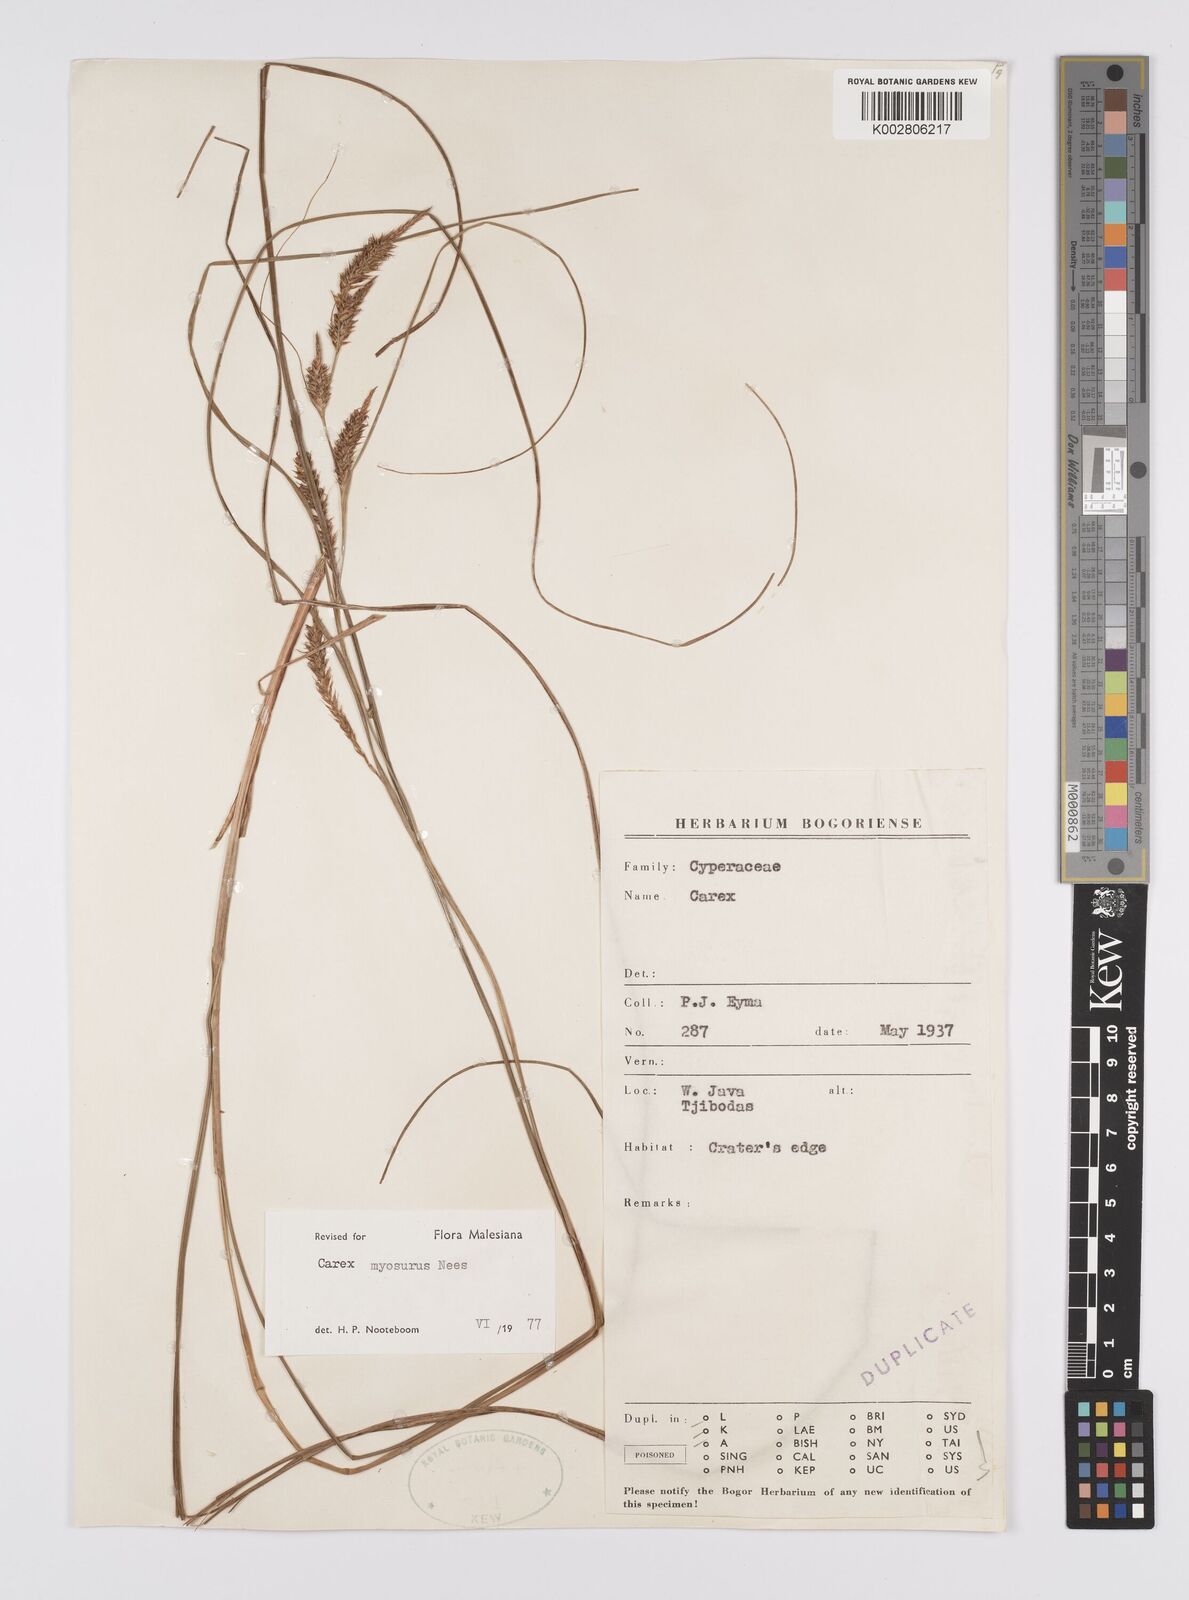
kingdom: Plantae
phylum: Tracheophyta
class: Liliopsida
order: Poales
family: Cyperaceae
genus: Carex
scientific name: Carex myosurus
